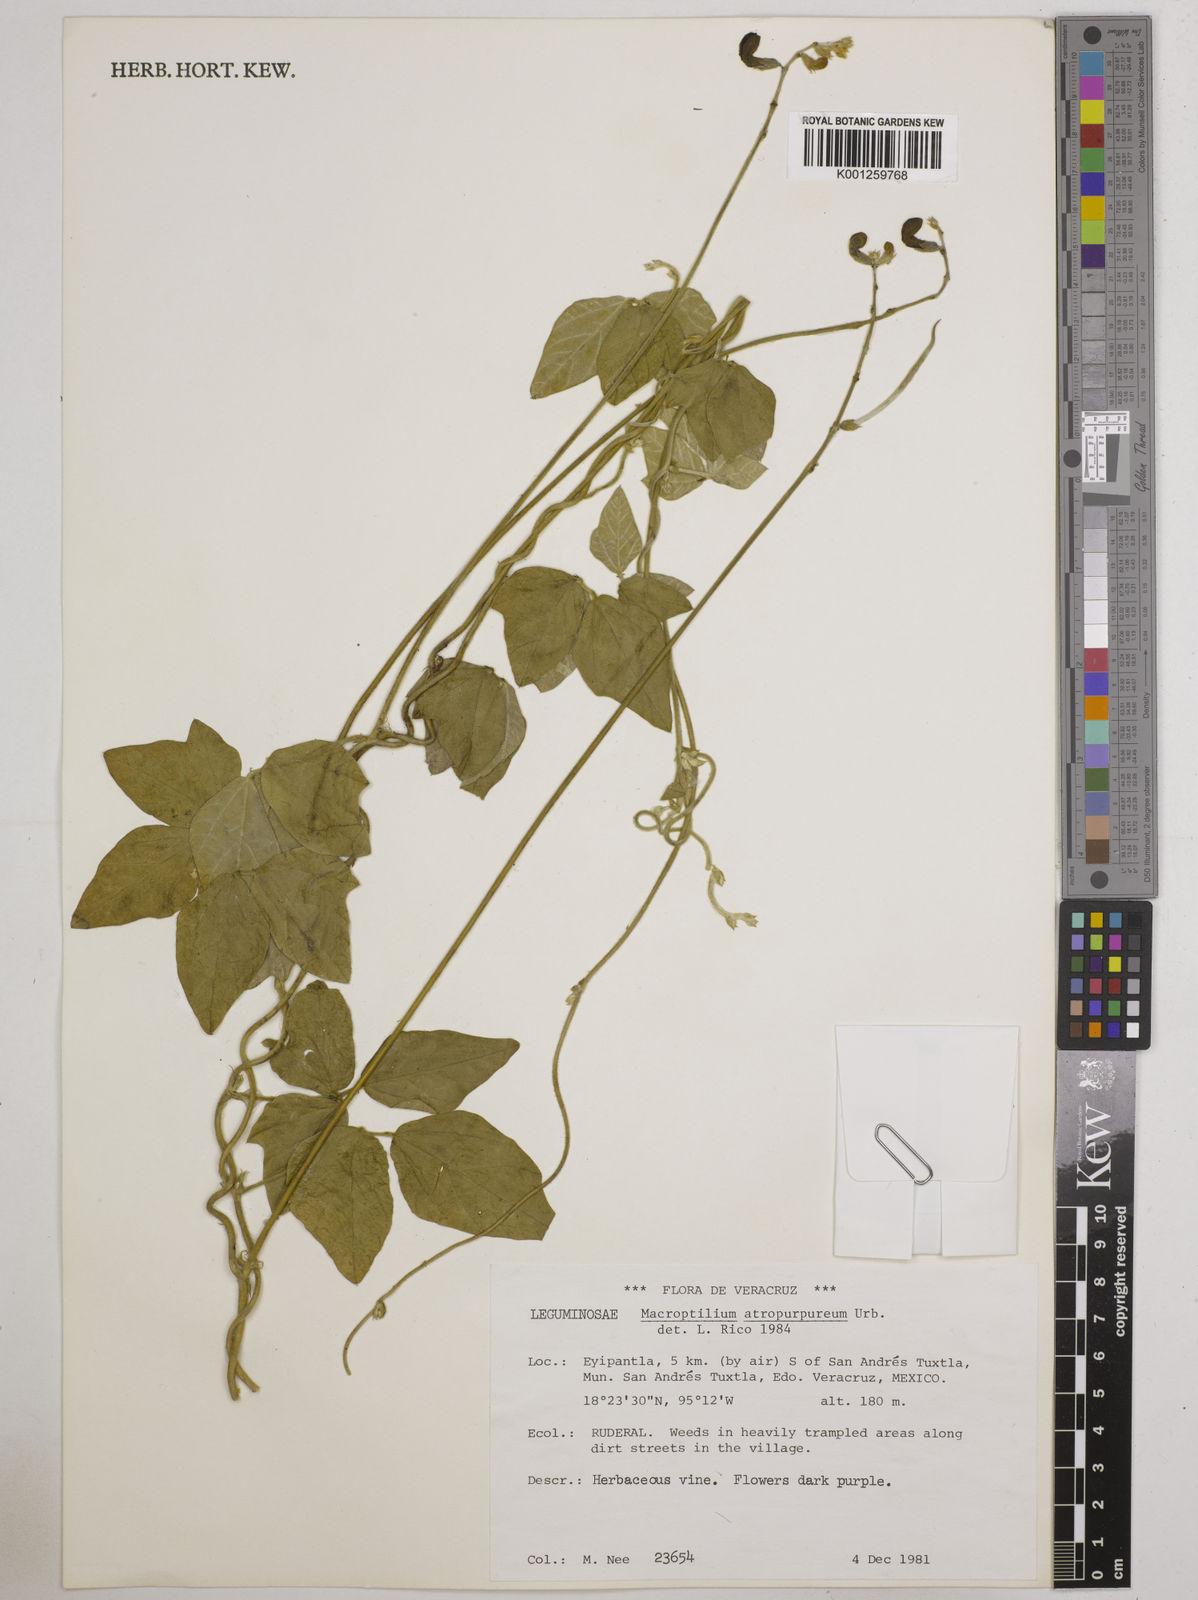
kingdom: Plantae
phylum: Tracheophyta
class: Magnoliopsida
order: Fabales
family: Fabaceae
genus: Macroptilium
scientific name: Macroptilium atropurpureum
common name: Purple bushbean
